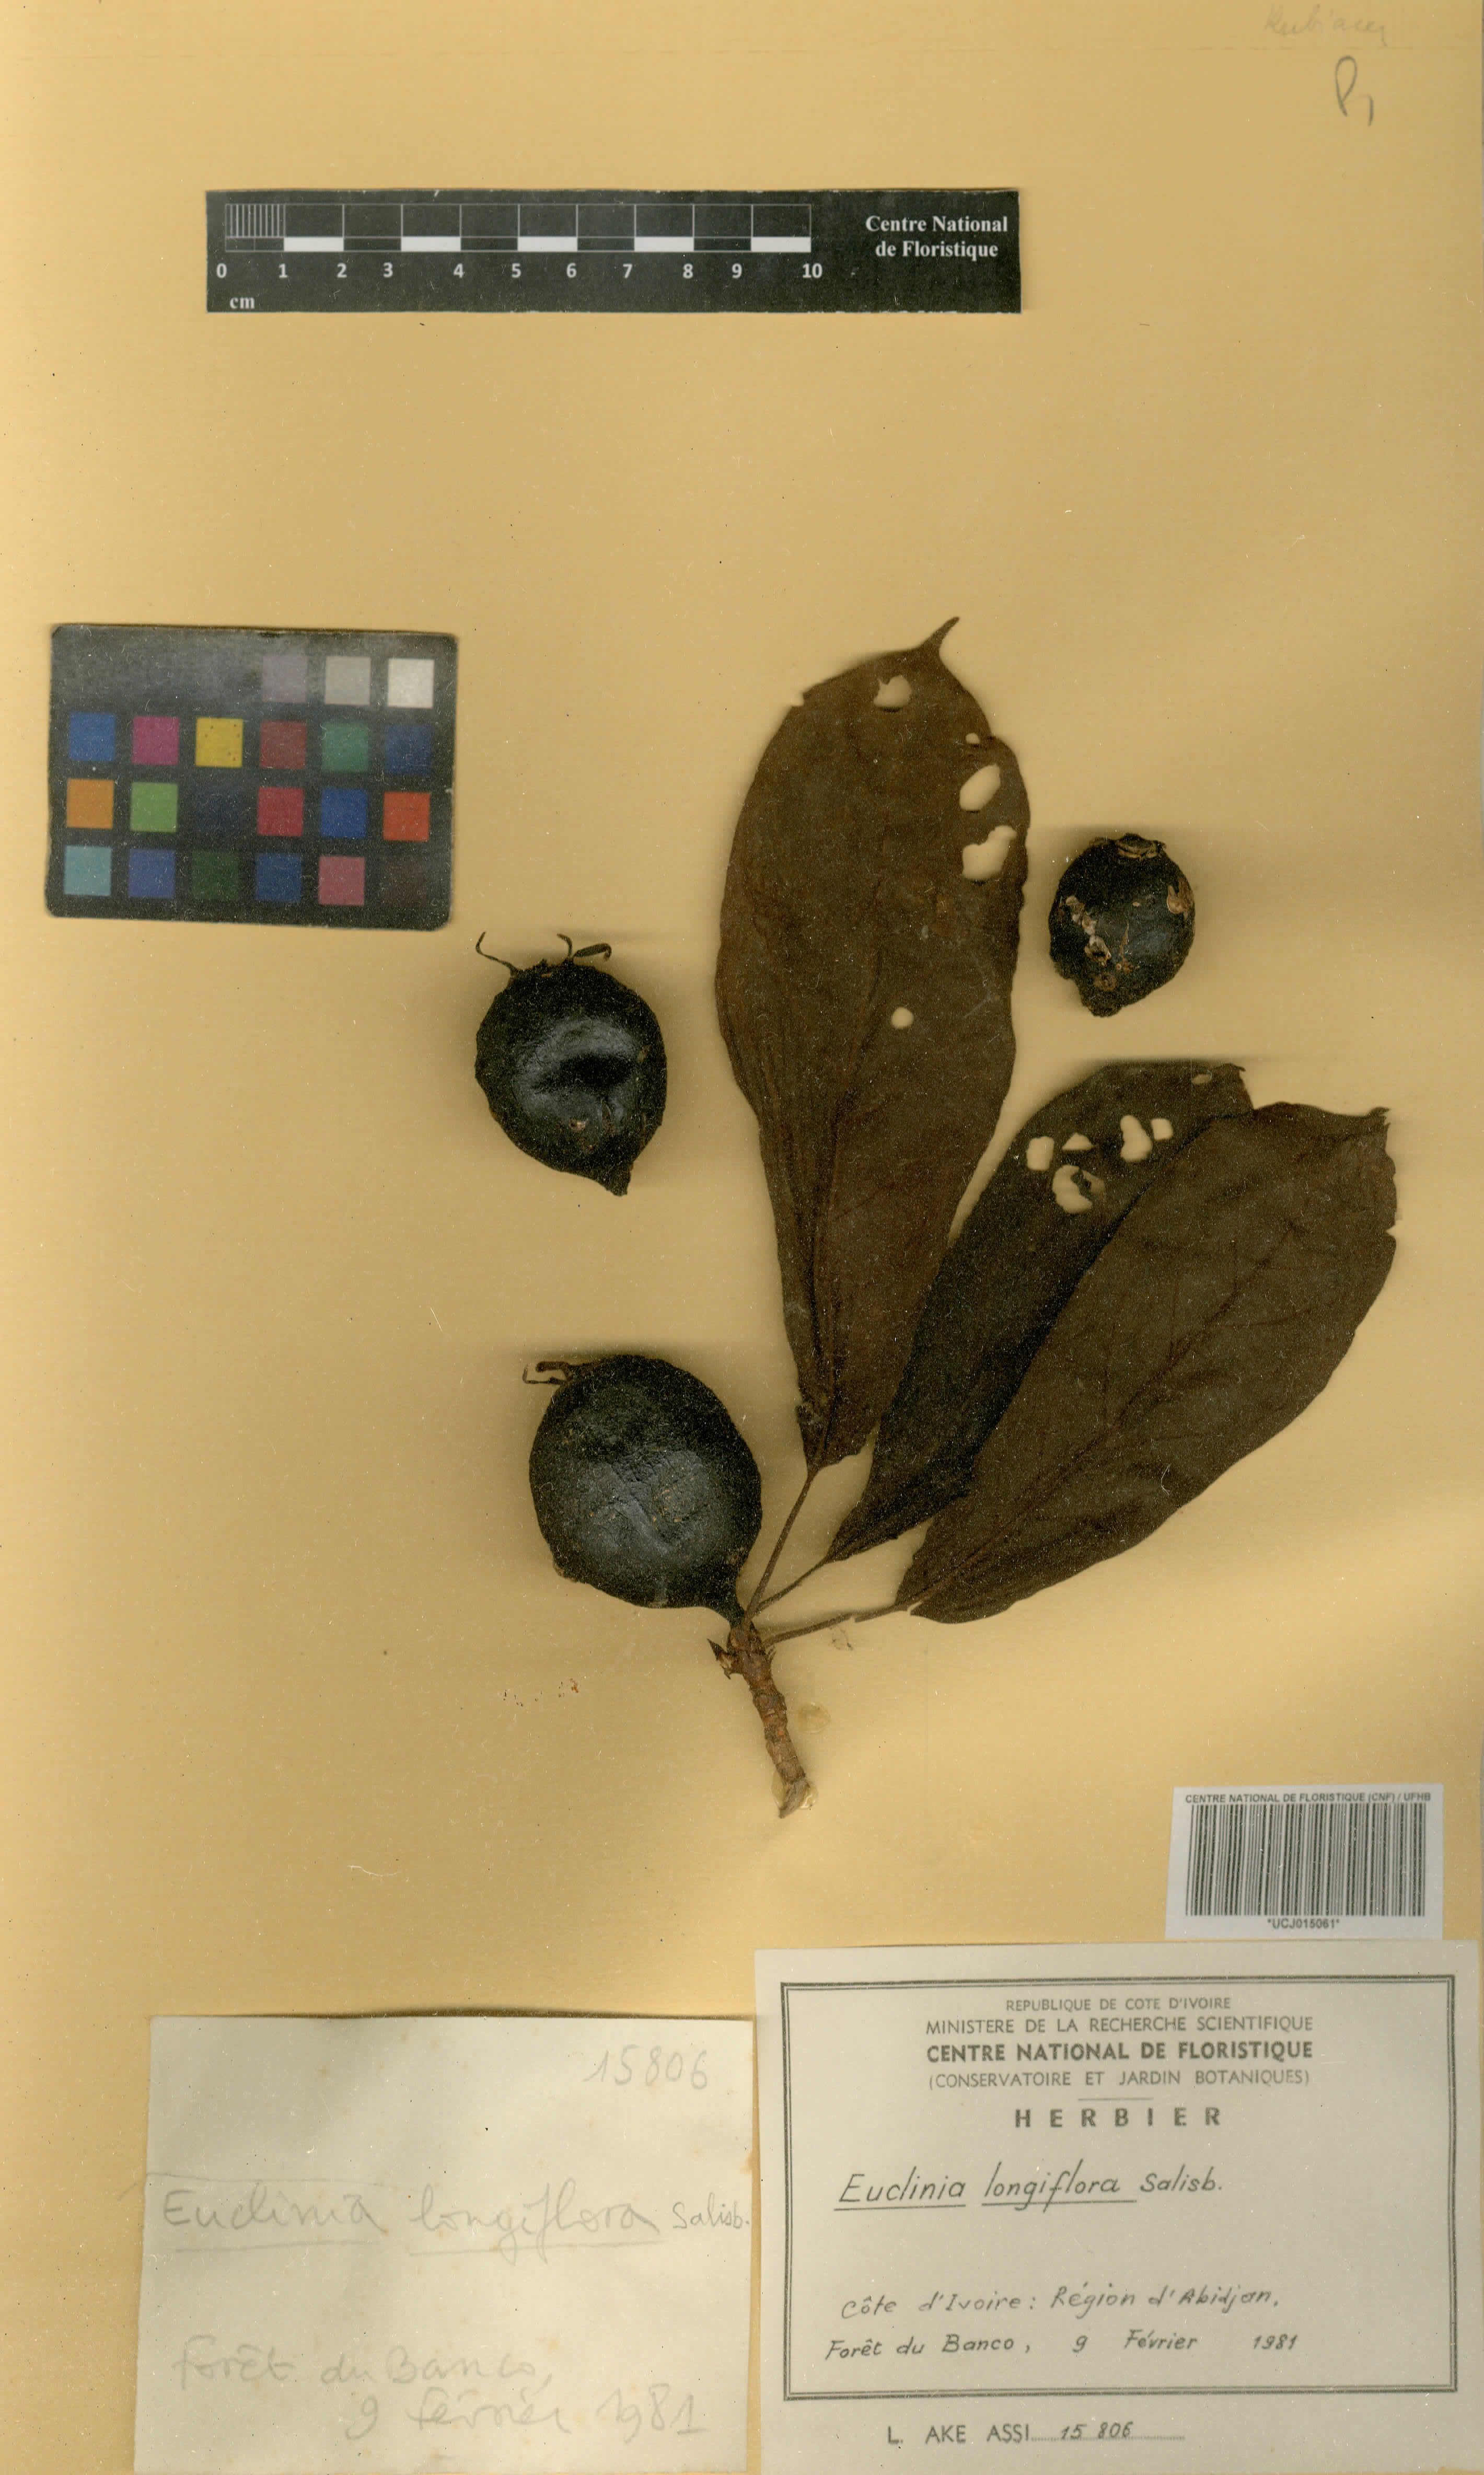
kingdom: Plantae
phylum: Tracheophyta
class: Magnoliopsida
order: Gentianales
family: Rubiaceae
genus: Euclinia
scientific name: Euclinia longiflora
